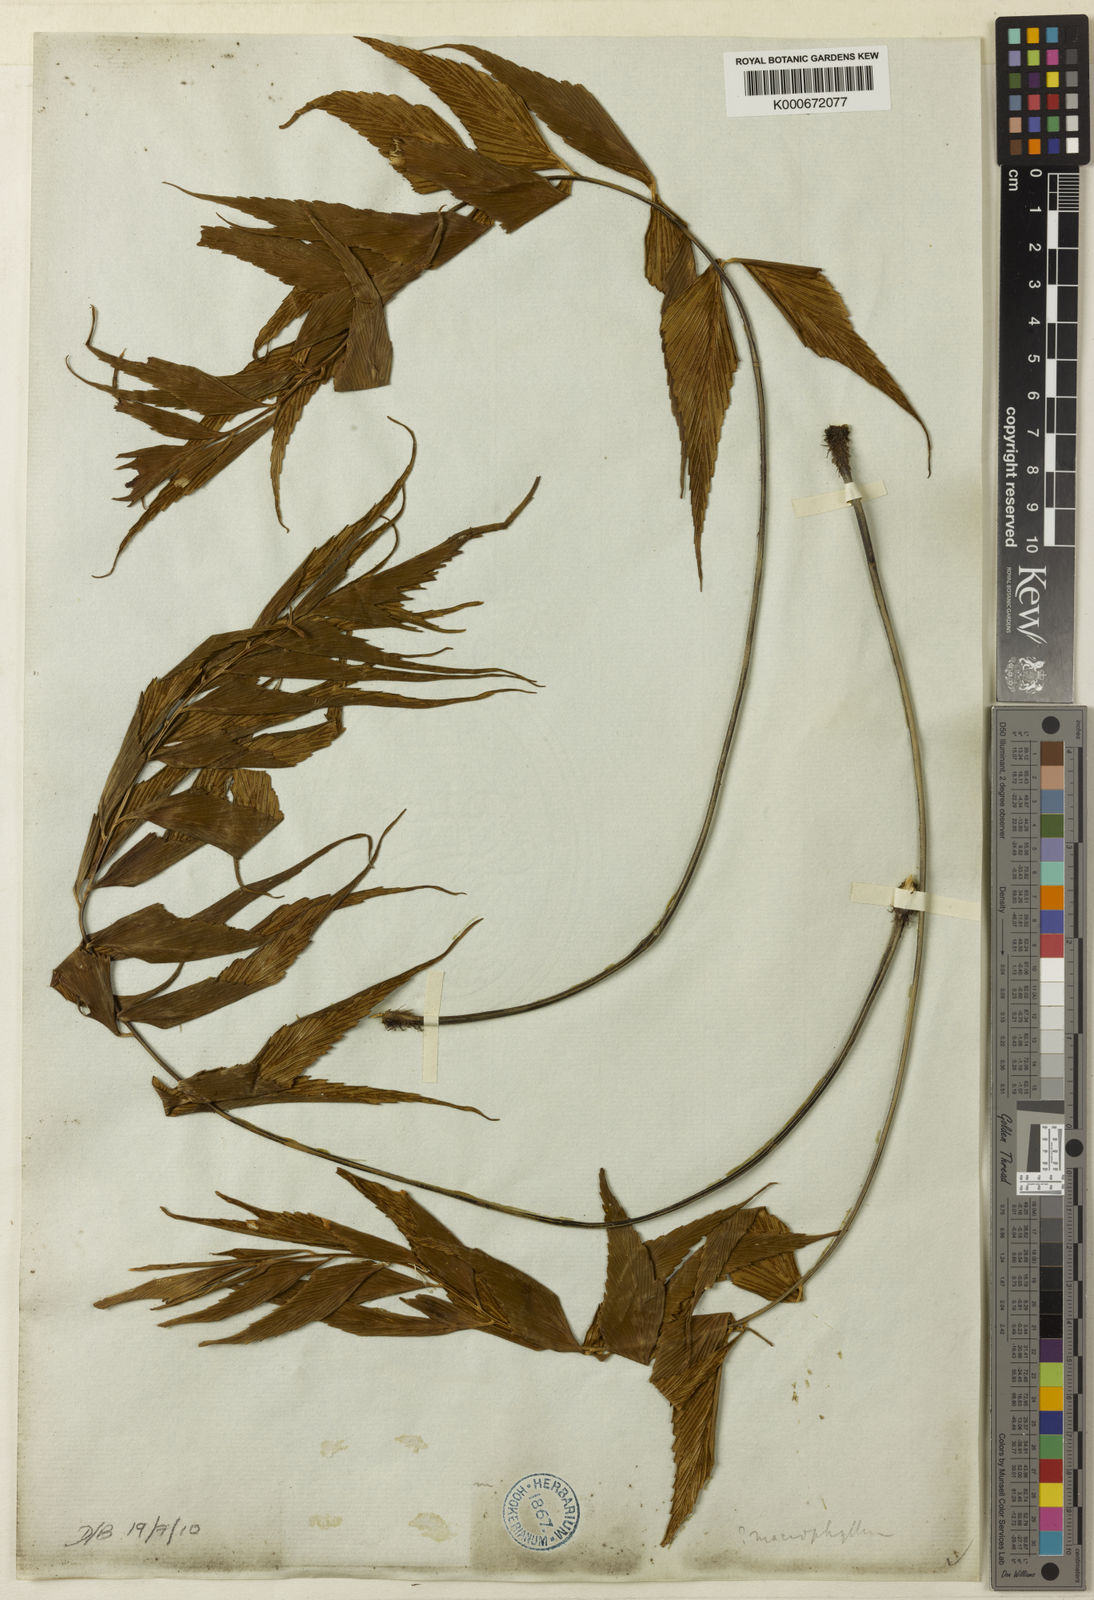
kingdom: Plantae
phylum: Tracheophyta
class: Polypodiopsida
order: Polypodiales
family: Aspleniaceae
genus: Asplenium
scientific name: Asplenium macrophyllum
